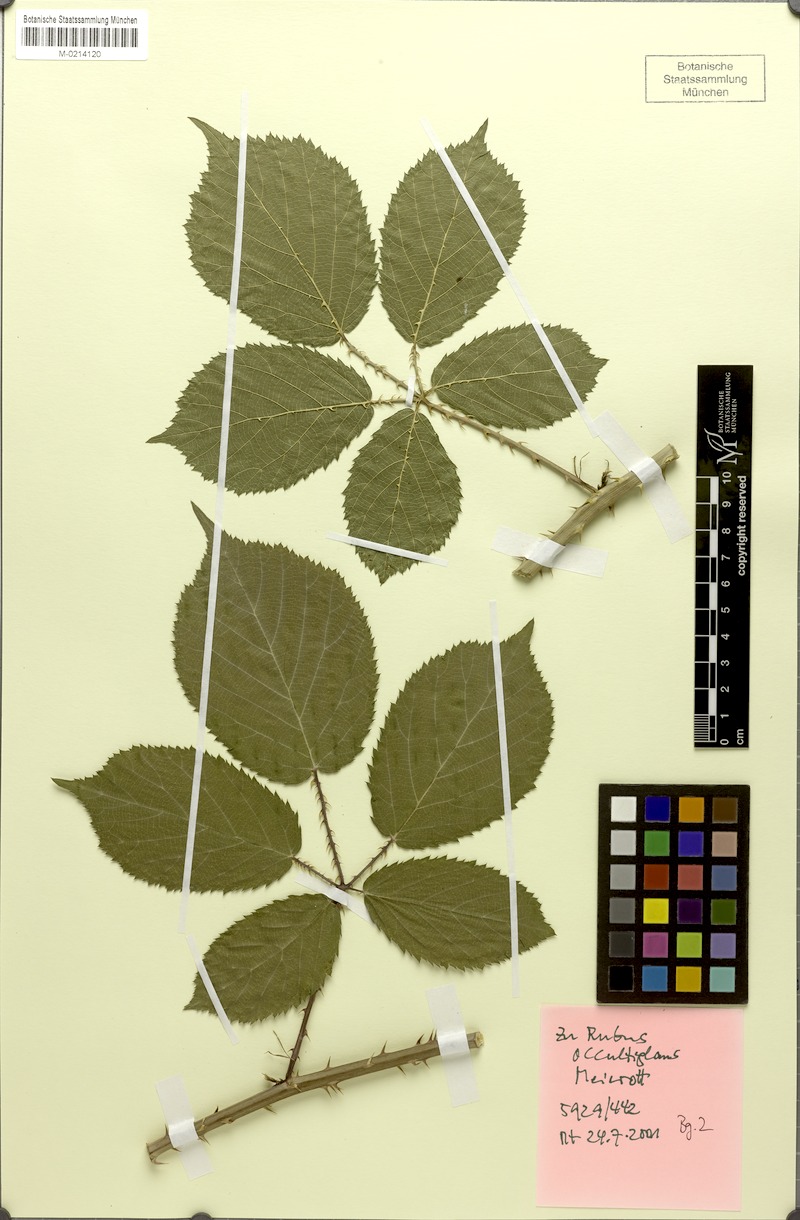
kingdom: Plantae
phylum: Tracheophyta
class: Magnoliopsida
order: Rosales
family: Rosaceae
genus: Rubus
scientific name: Rubus occultiglans
